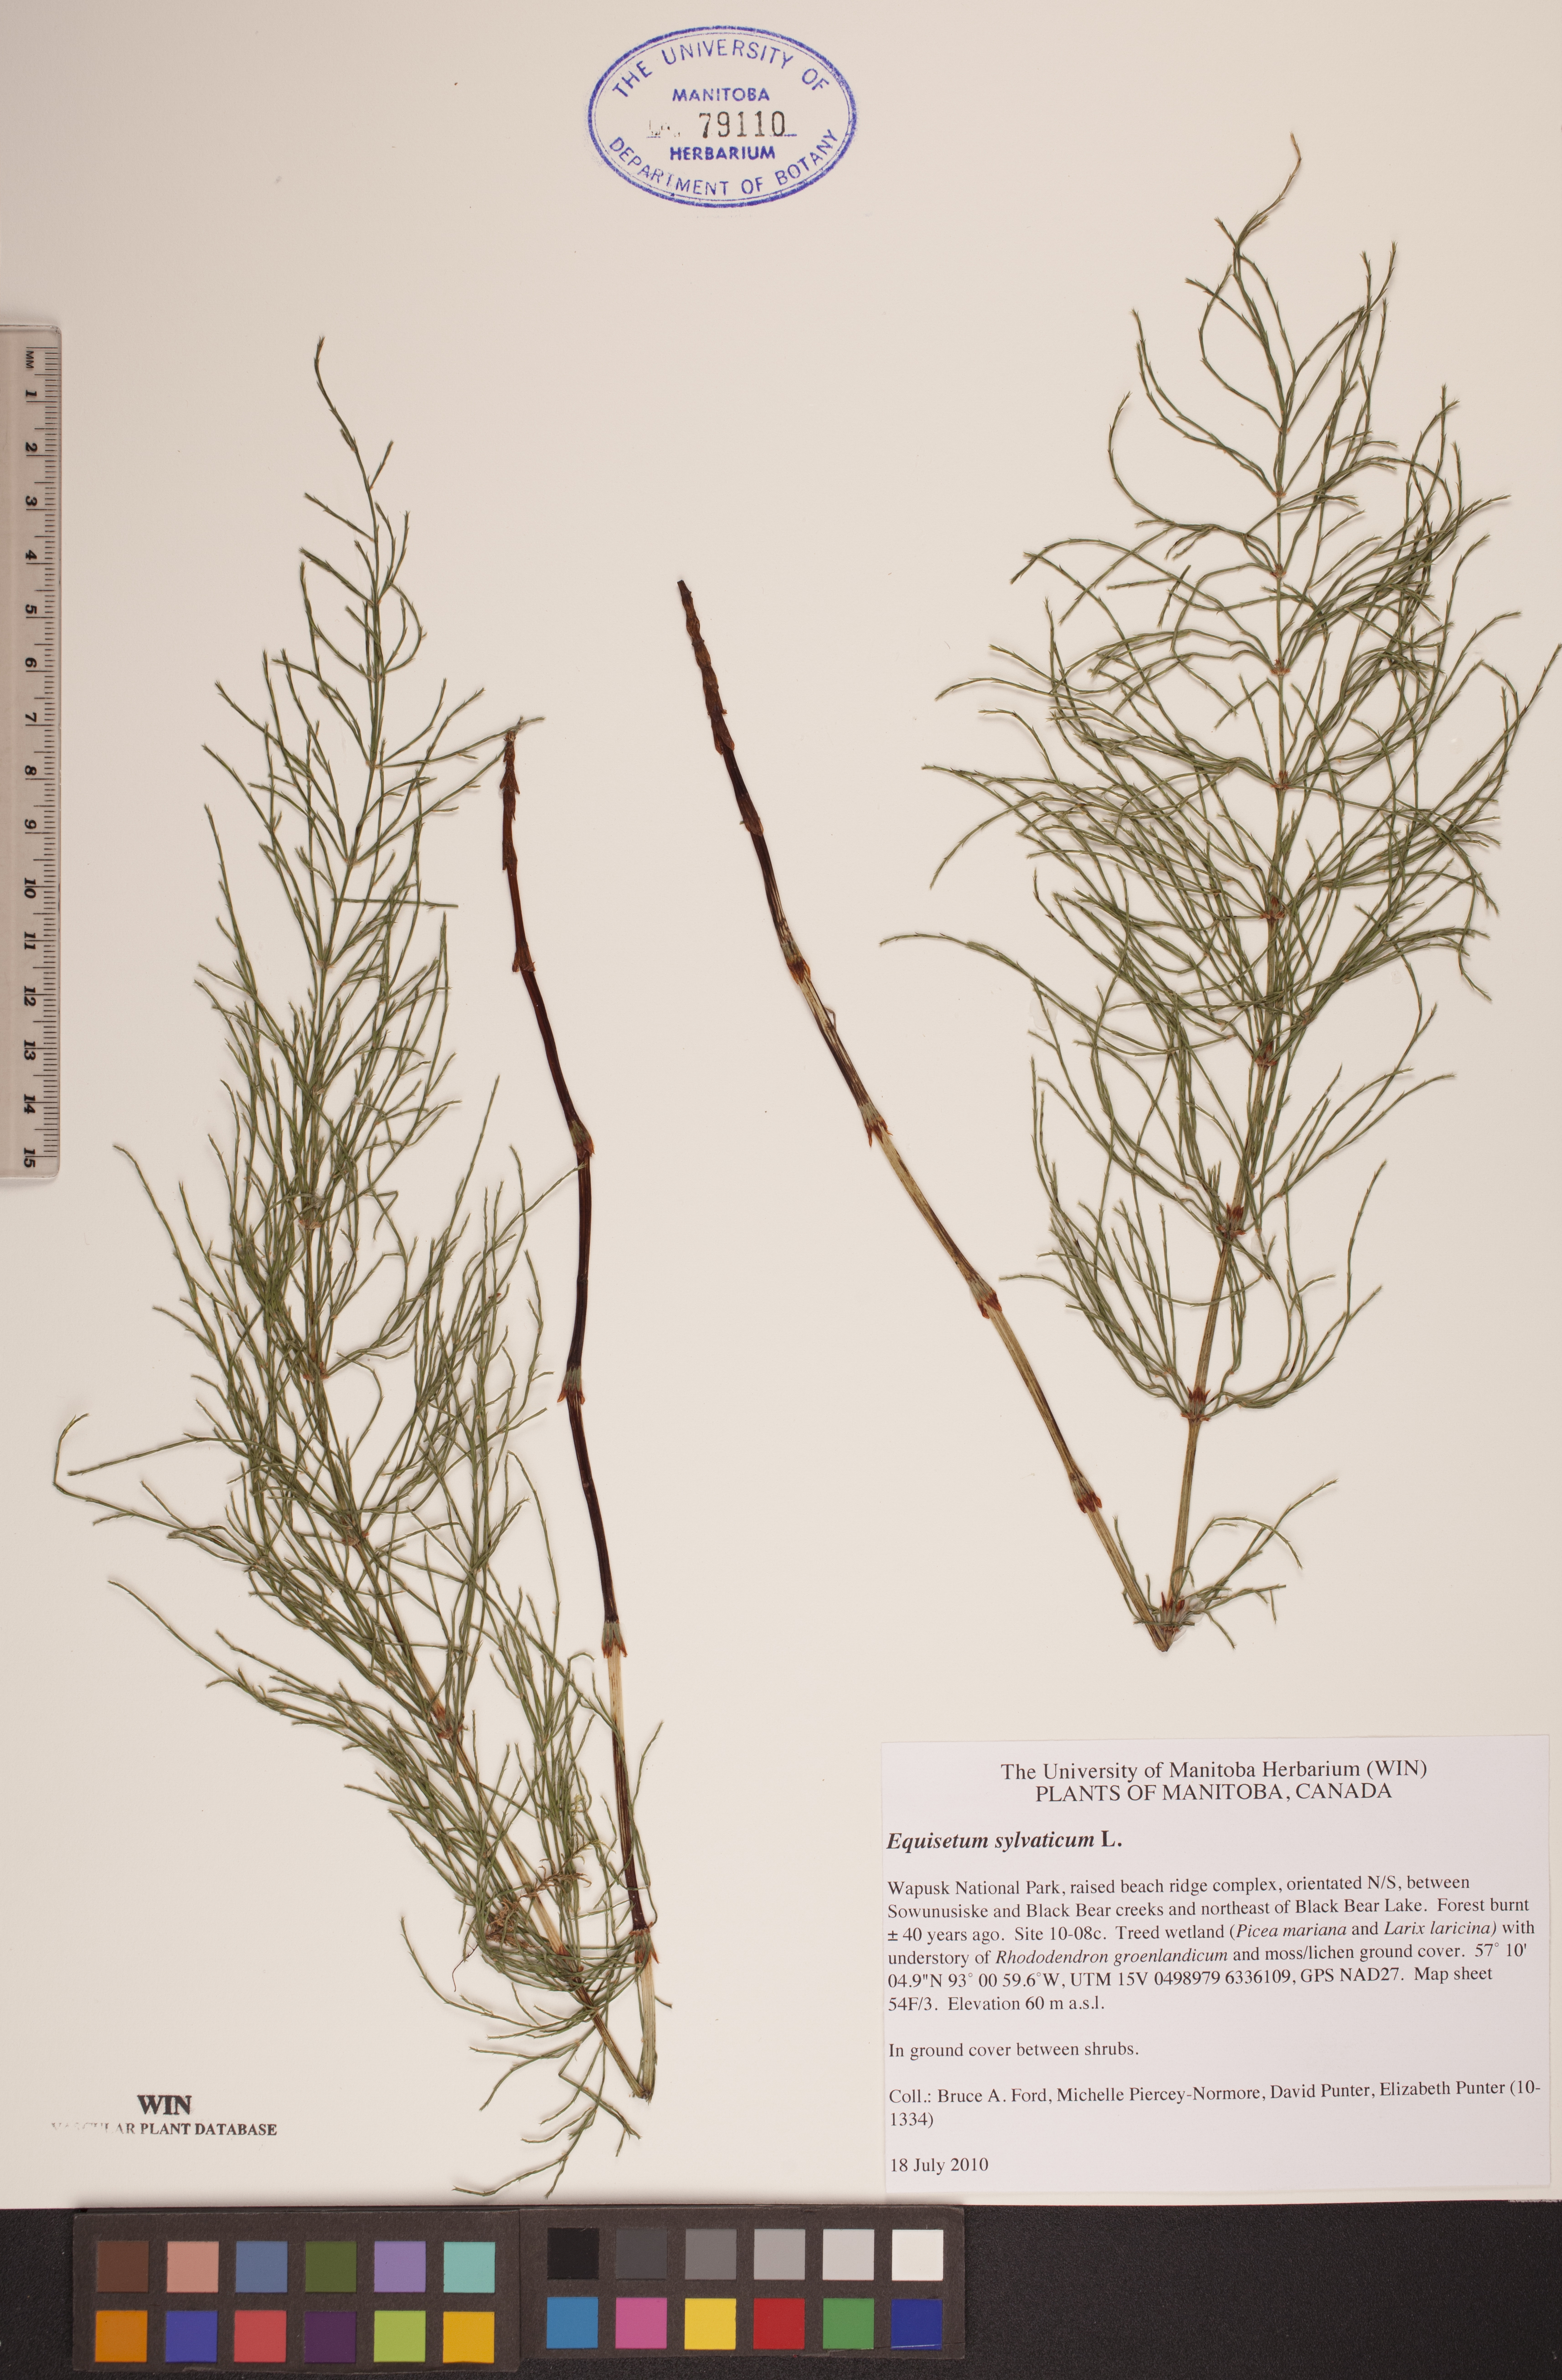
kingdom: Plantae
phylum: Tracheophyta
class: Polypodiopsida
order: Equisetales
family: Equisetaceae
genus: Equisetum
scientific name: Equisetum sylvaticum
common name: Wood horsetail
